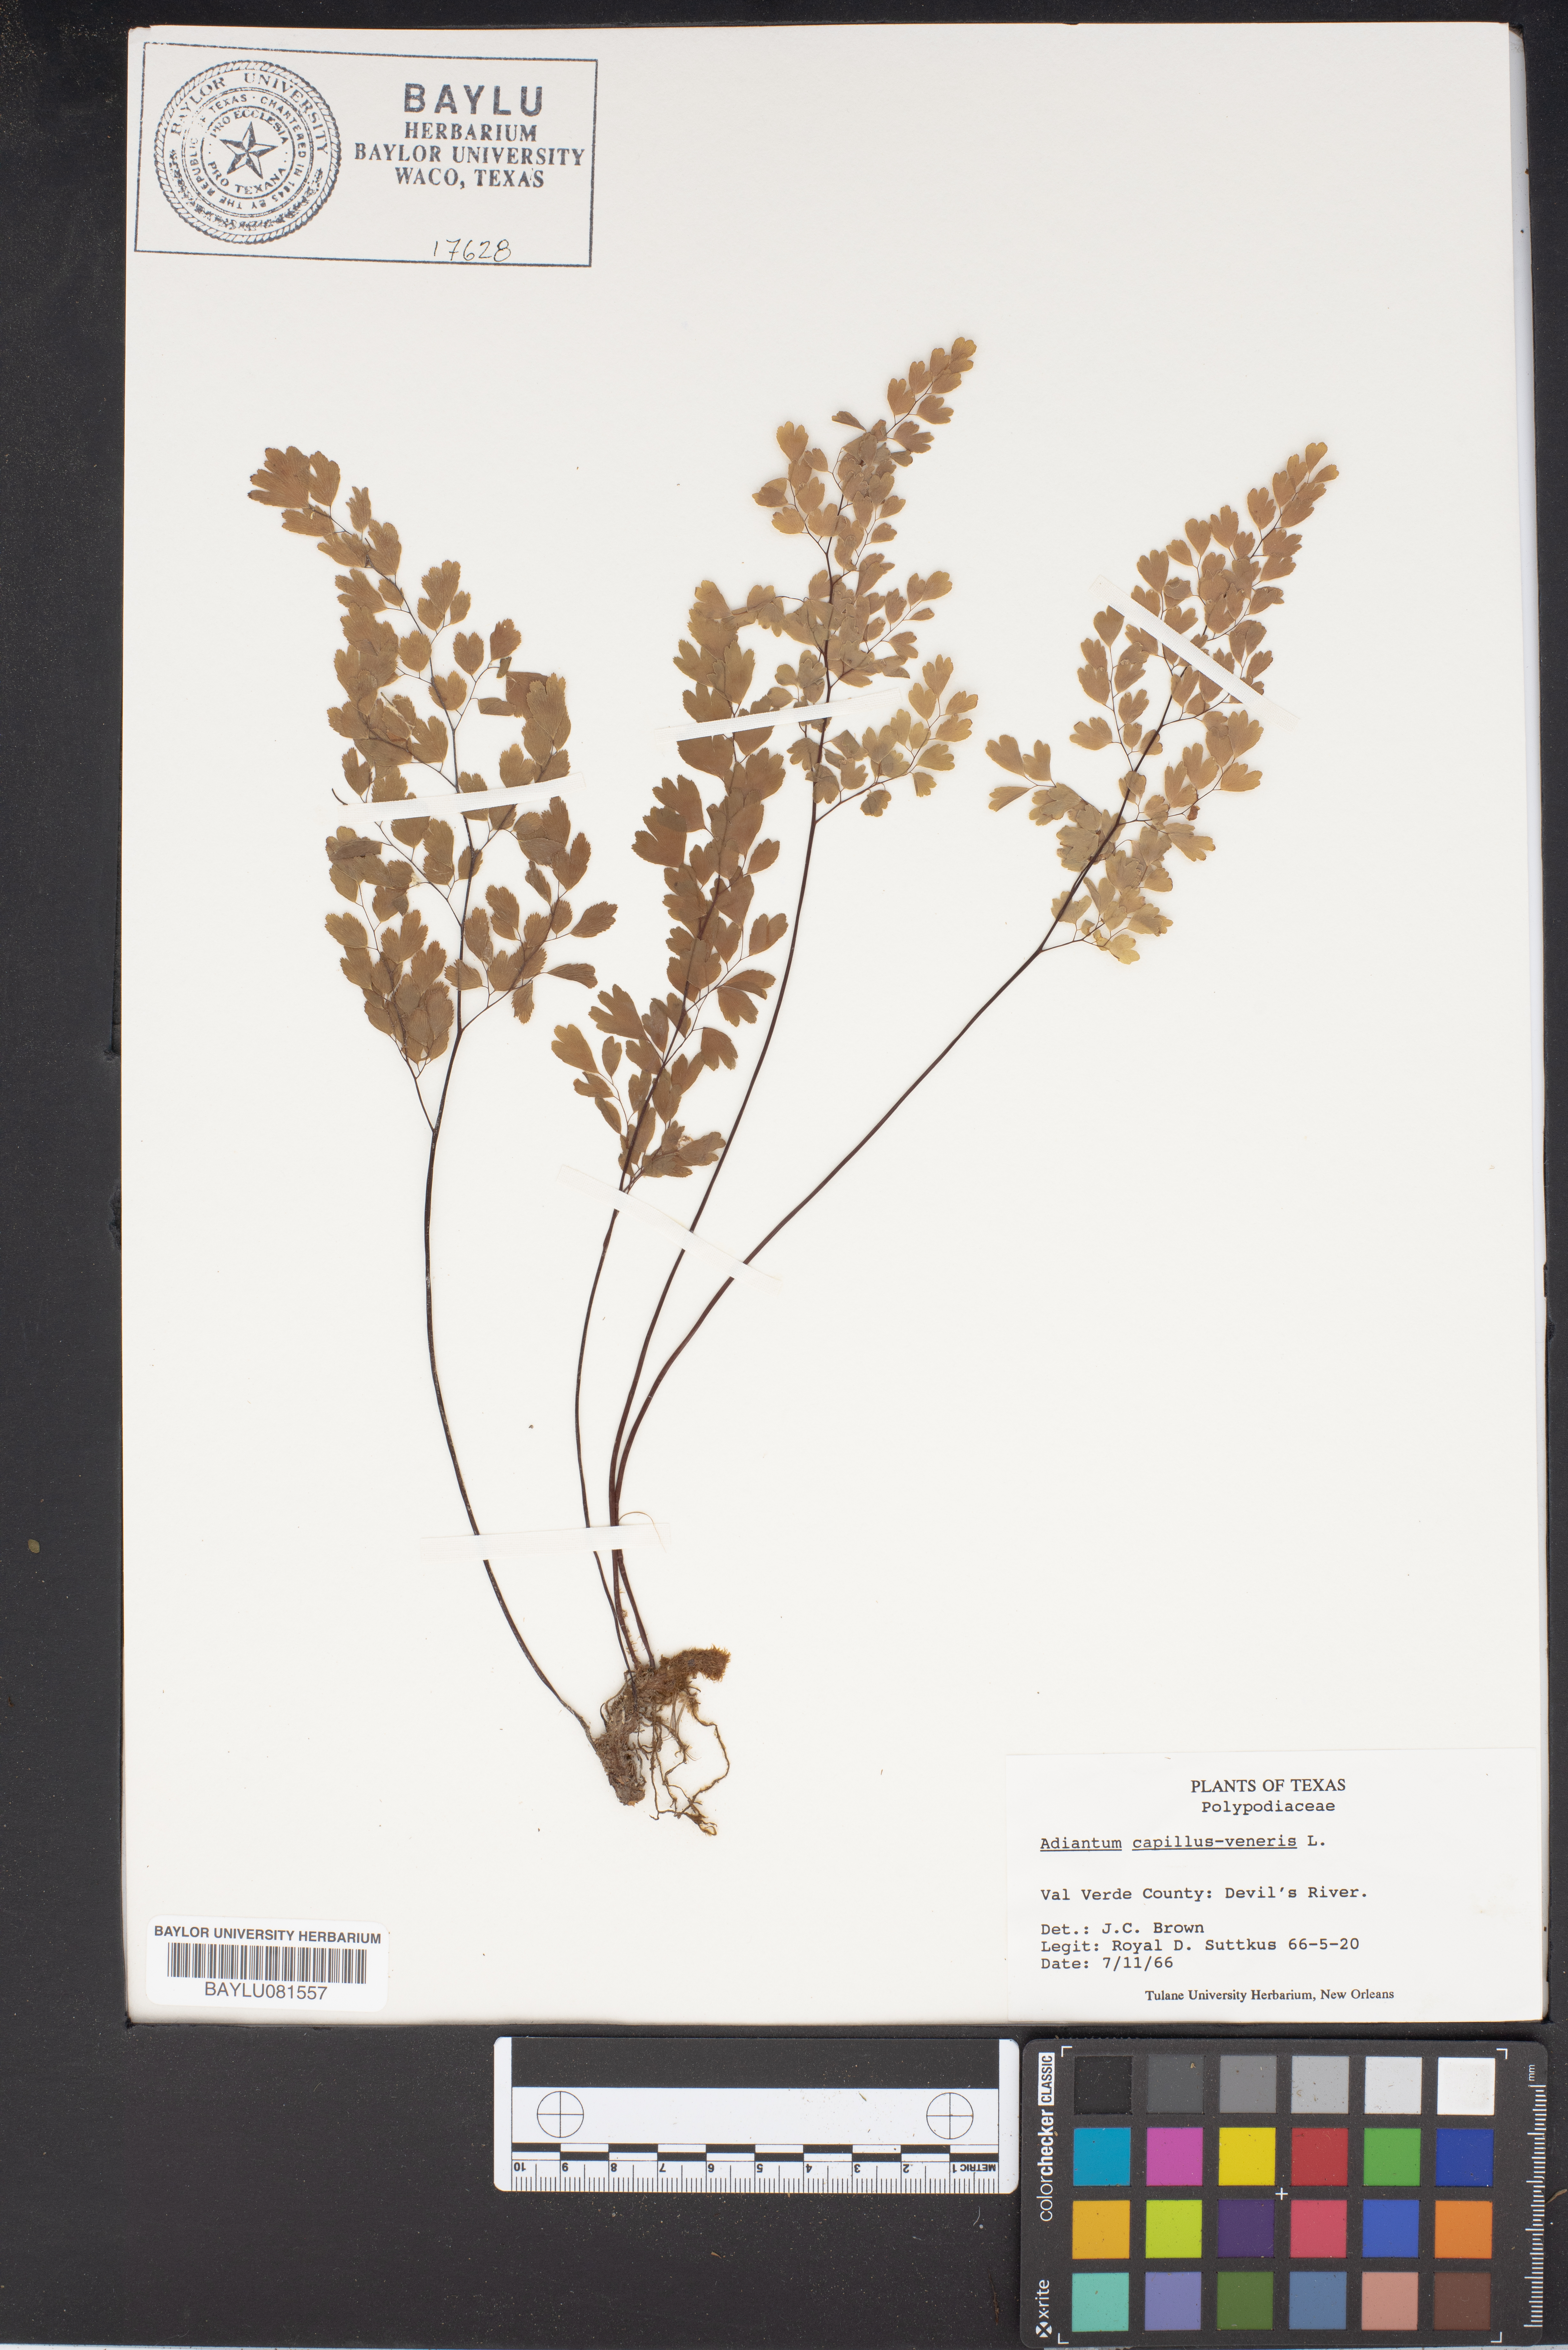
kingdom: Plantae
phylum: Tracheophyta
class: Polypodiopsida
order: Polypodiales
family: Pteridaceae
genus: Adiantum
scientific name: Adiantum capillus-veneris
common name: Maidenhair fern
